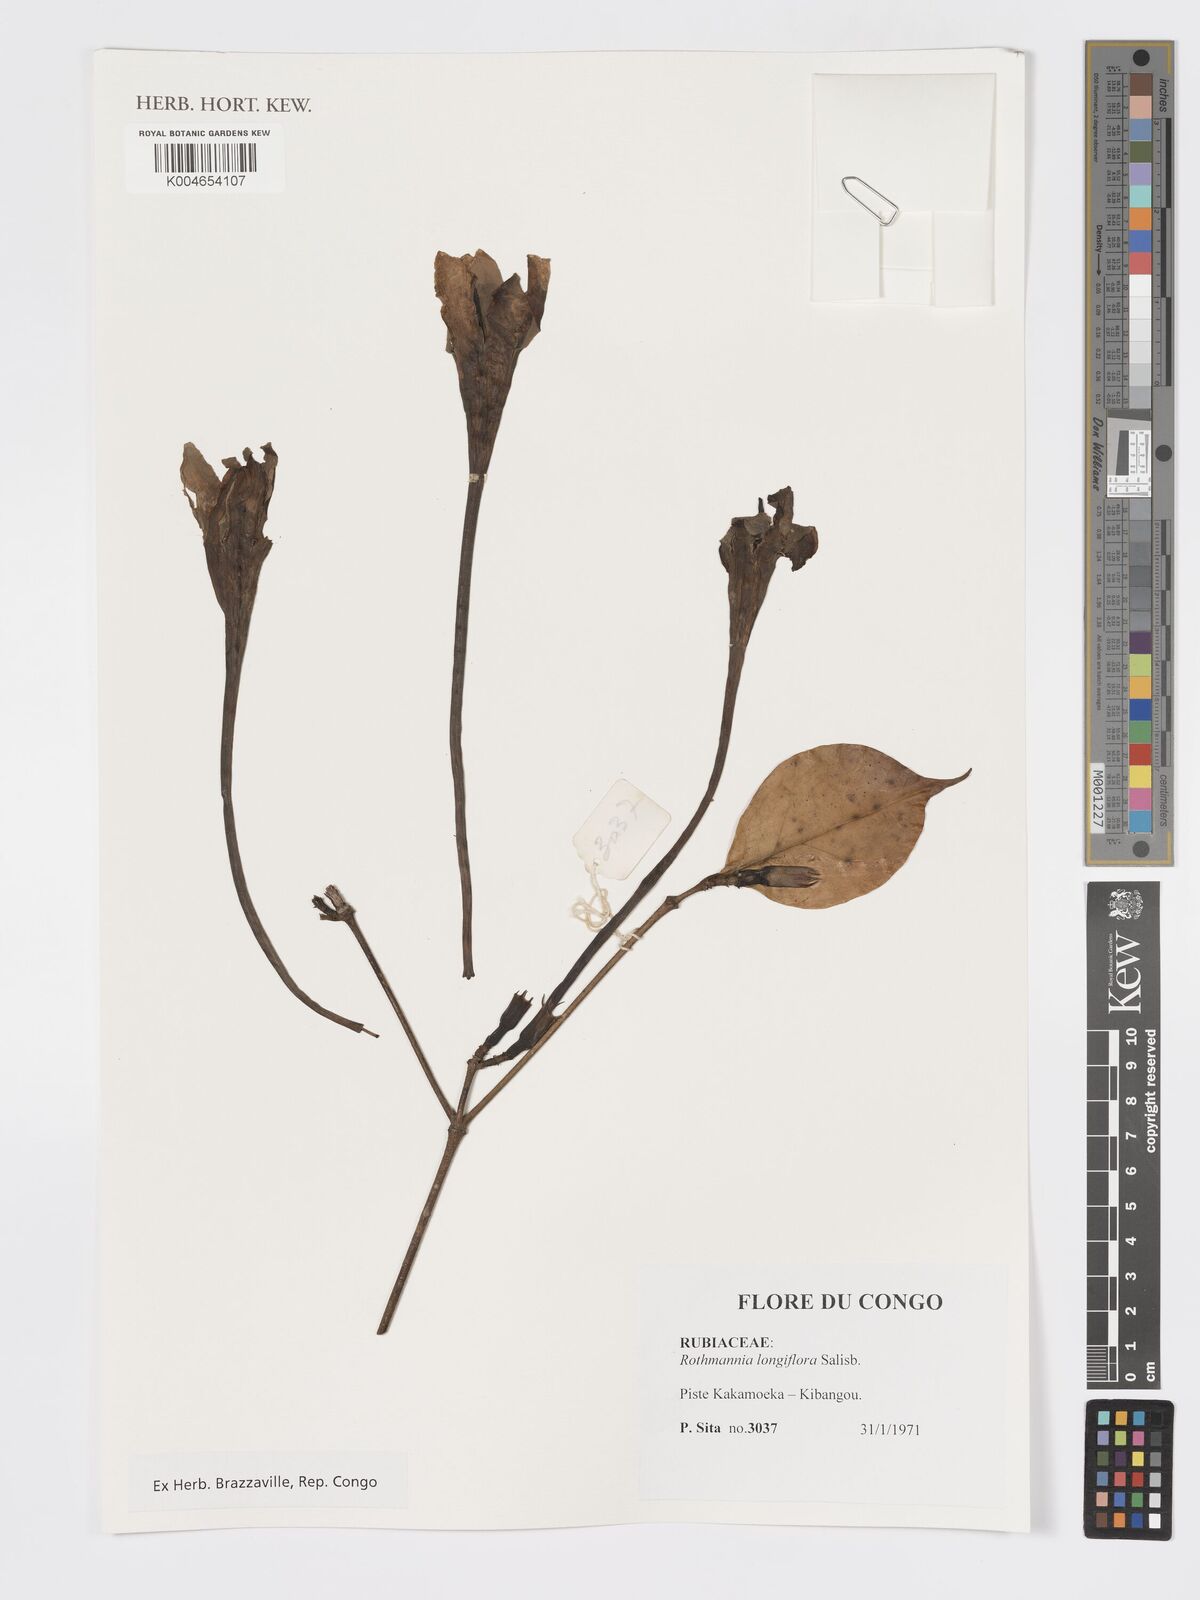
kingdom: Plantae
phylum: Tracheophyta
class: Magnoliopsida
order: Gentianales
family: Rubiaceae
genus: Rothmannia
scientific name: Rothmannia longiflora
